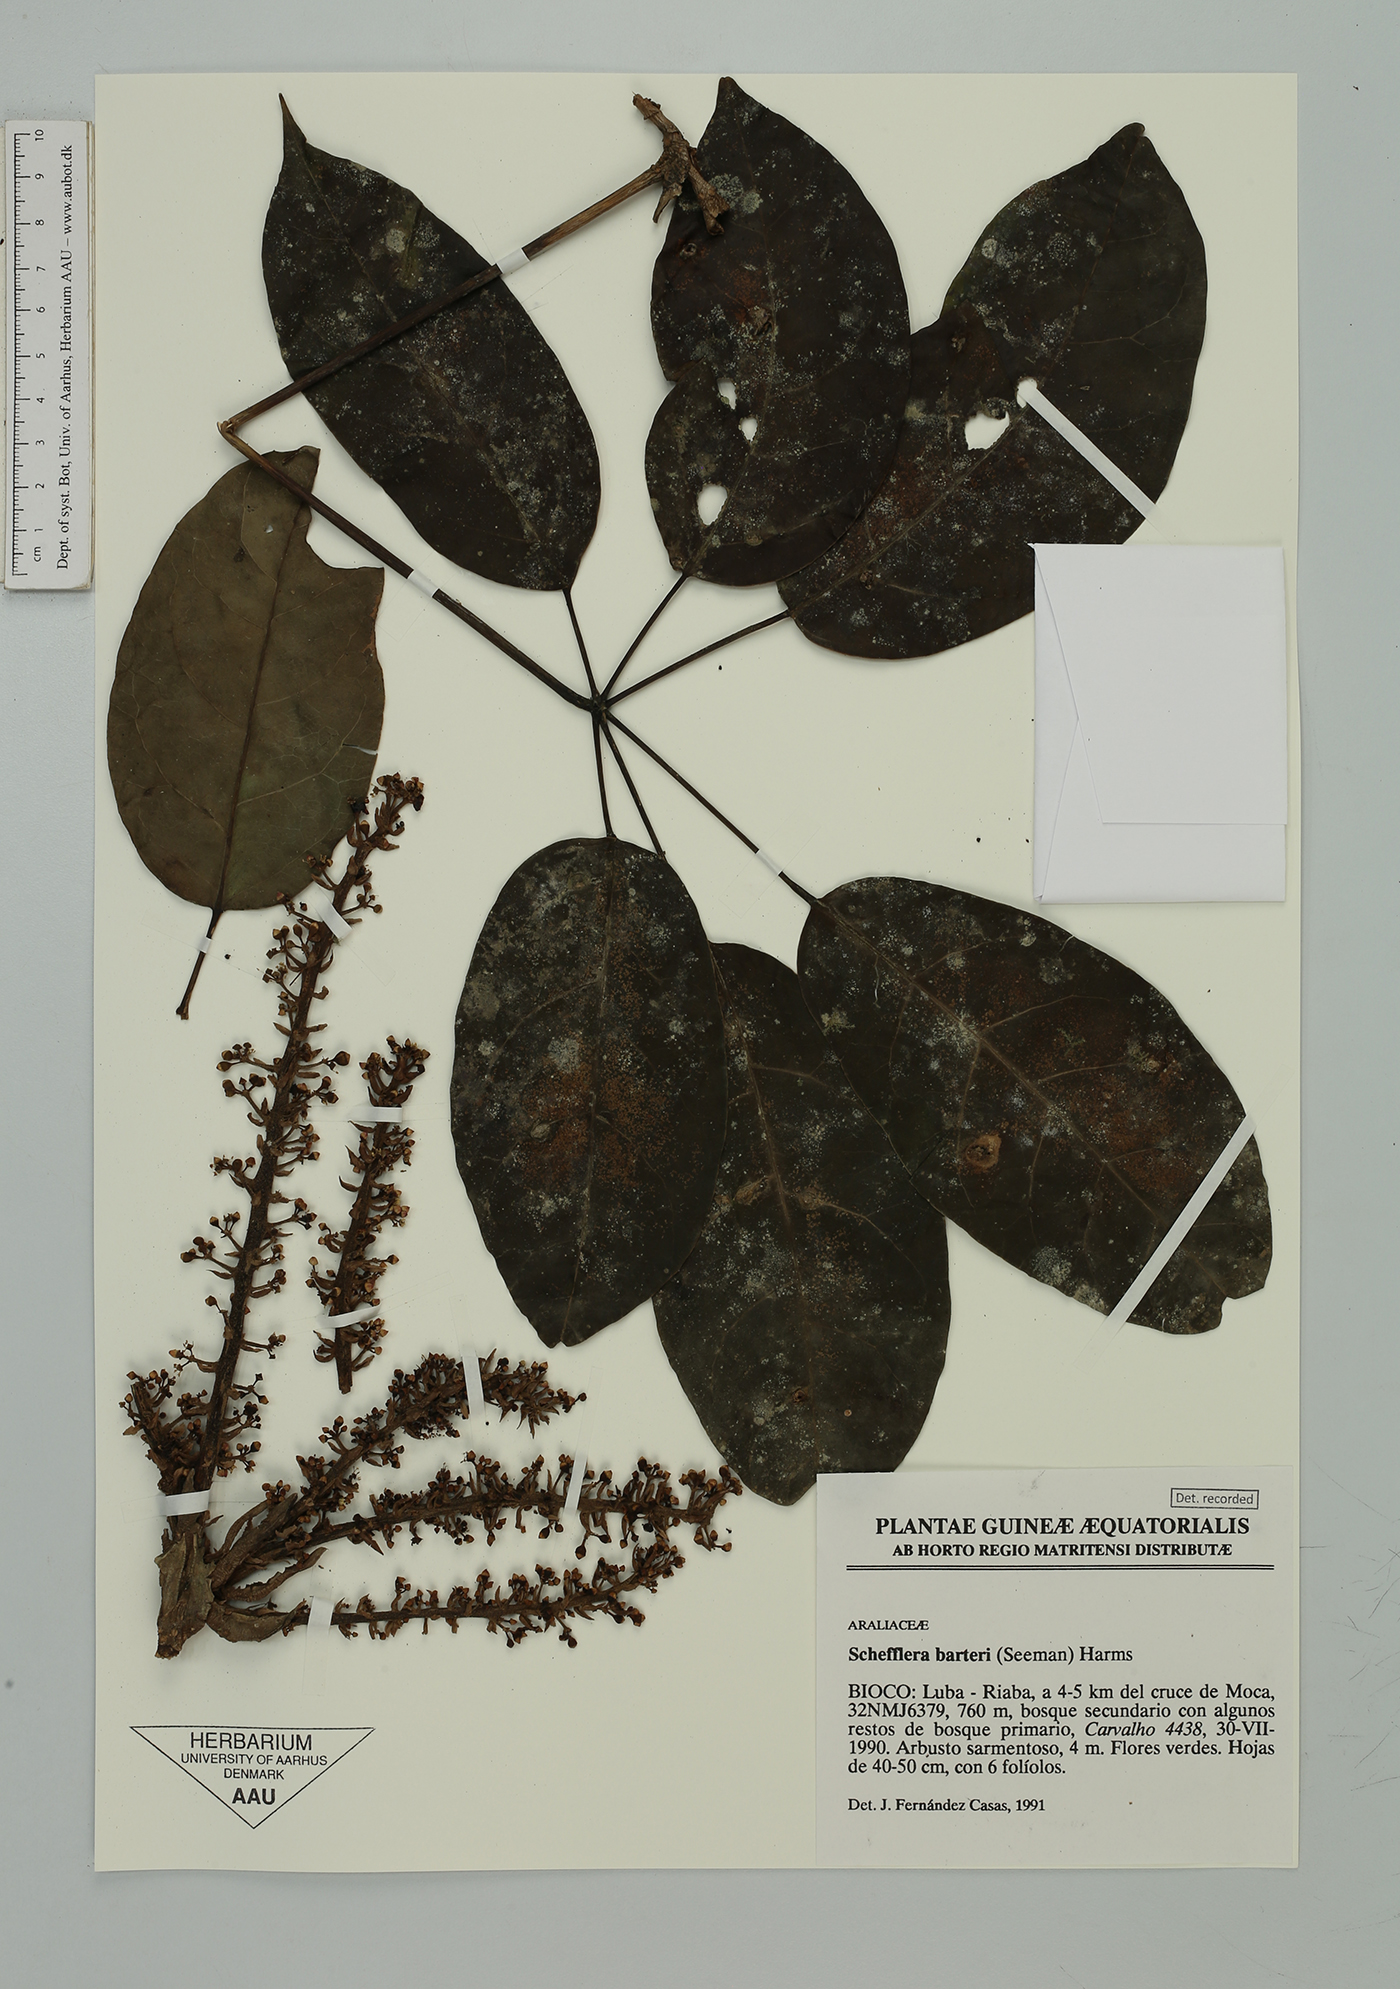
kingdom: Plantae
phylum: Tracheophyta
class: Magnoliopsida
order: Apiales
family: Araliaceae
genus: Astropanax
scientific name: Astropanax barteri
